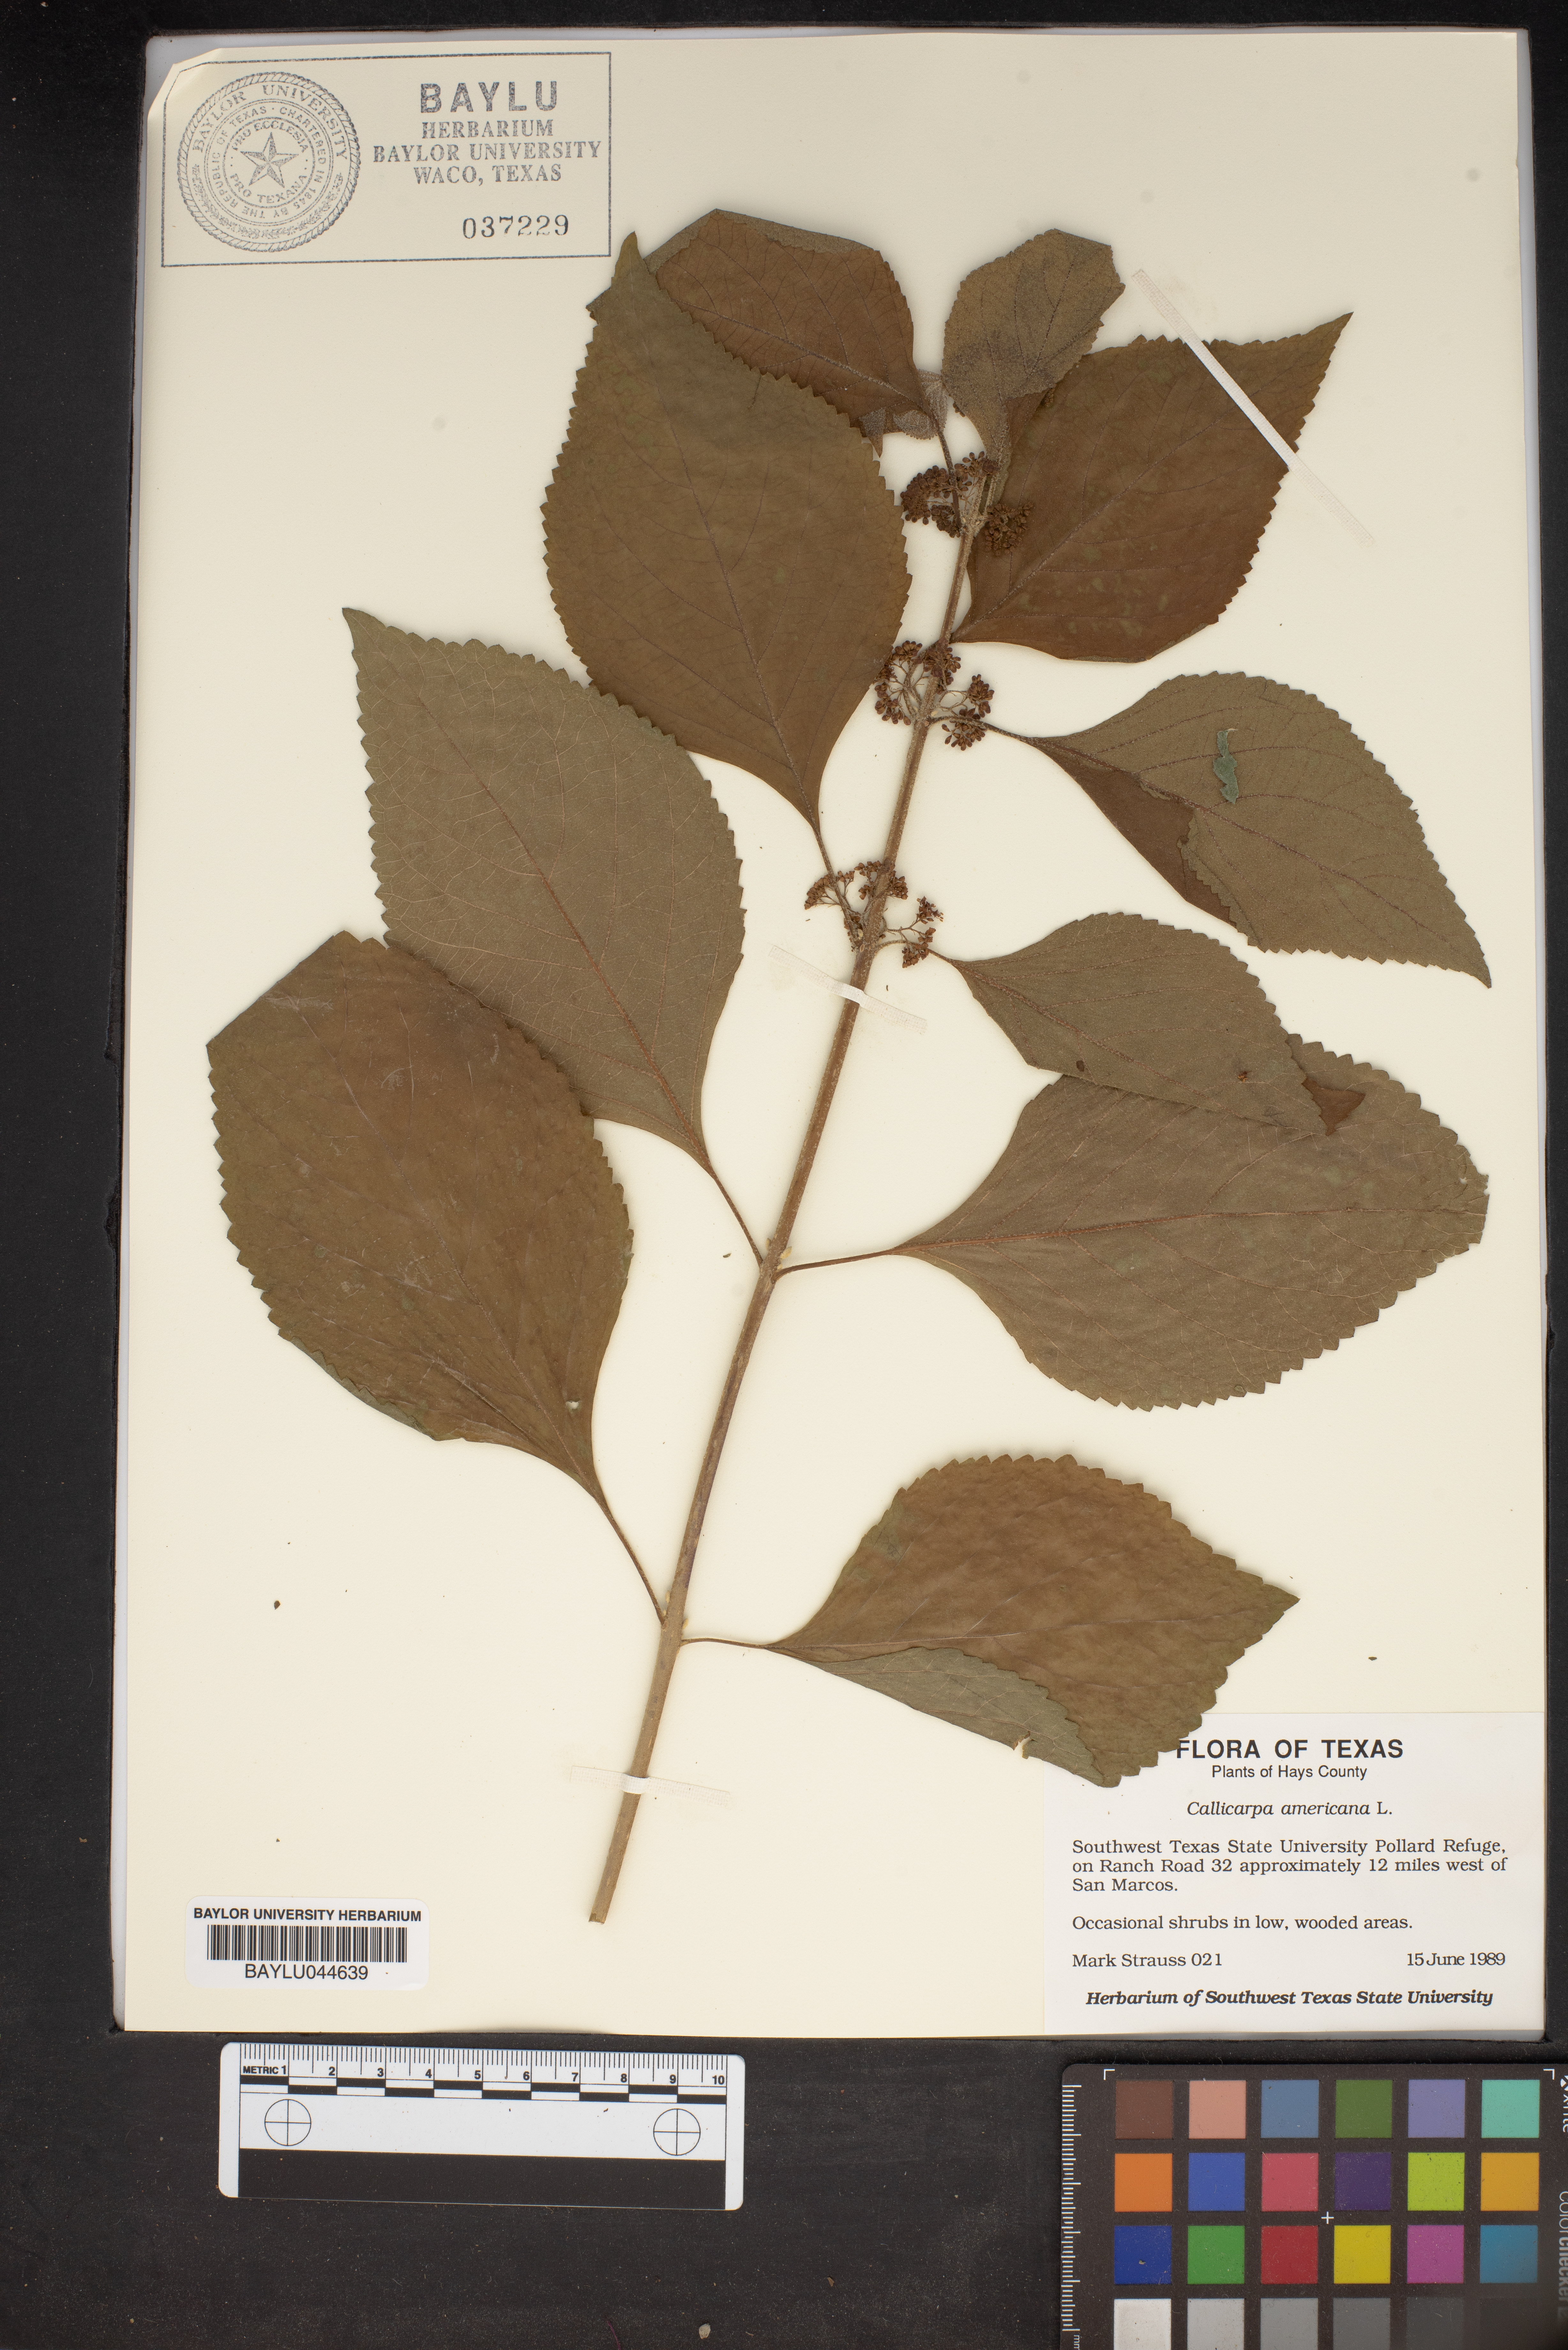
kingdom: Plantae
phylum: Tracheophyta
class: Magnoliopsida
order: Lamiales
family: Lamiaceae
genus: Callicarpa
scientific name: Callicarpa americana
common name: American beautyberry
